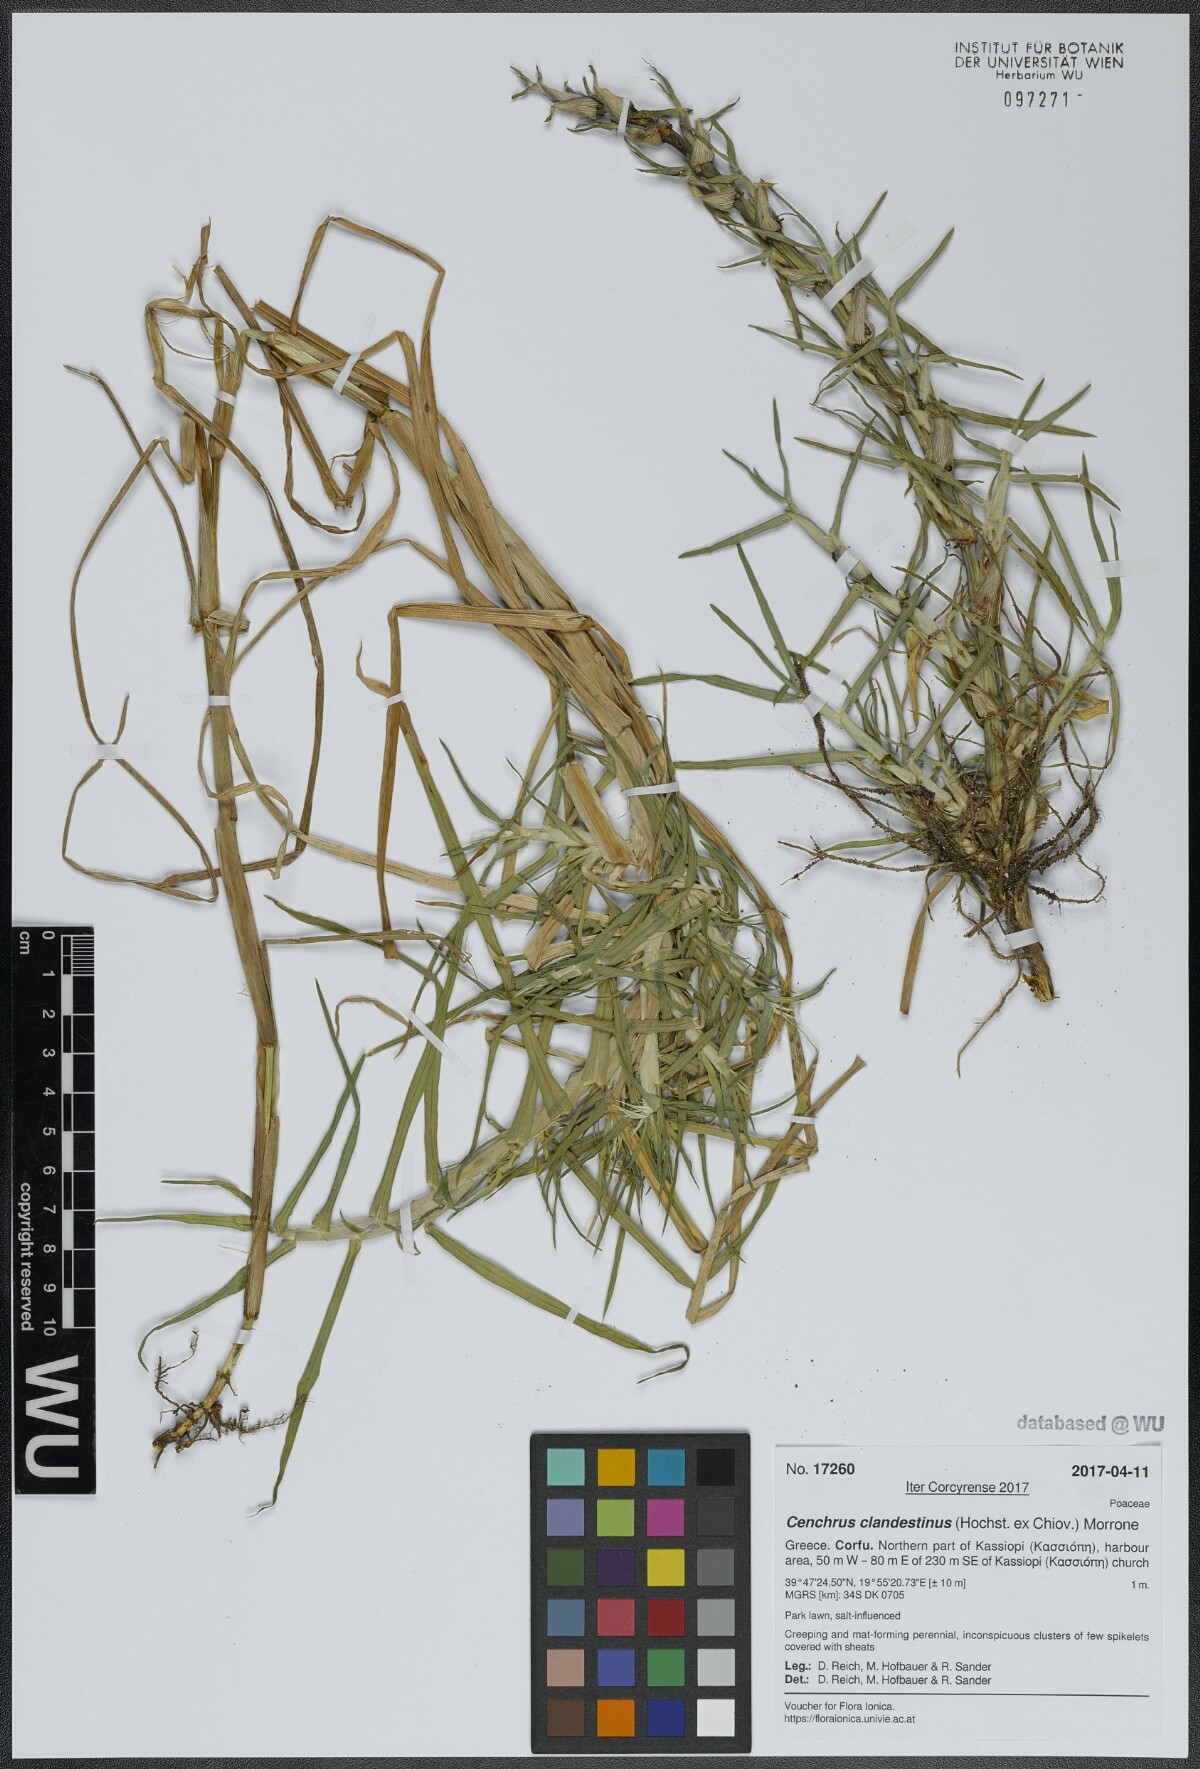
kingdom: Plantae
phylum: Tracheophyta
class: Liliopsida
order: Poales
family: Poaceae
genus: Cenchrus
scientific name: Cenchrus clandestinus
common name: Kikuyugrass
